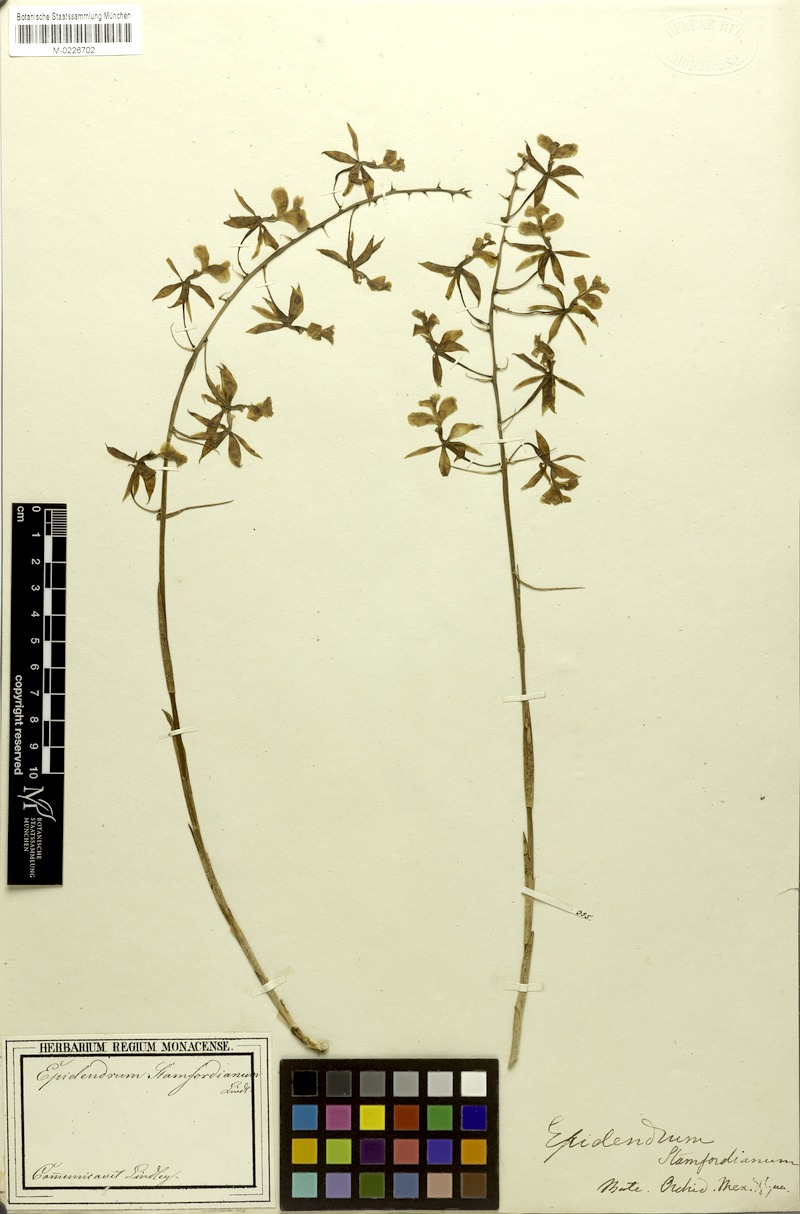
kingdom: Plantae
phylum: Tracheophyta
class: Liliopsida
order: Asparagales
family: Orchidaceae
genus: Epidendrum
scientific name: Epidendrum stamfordianum
